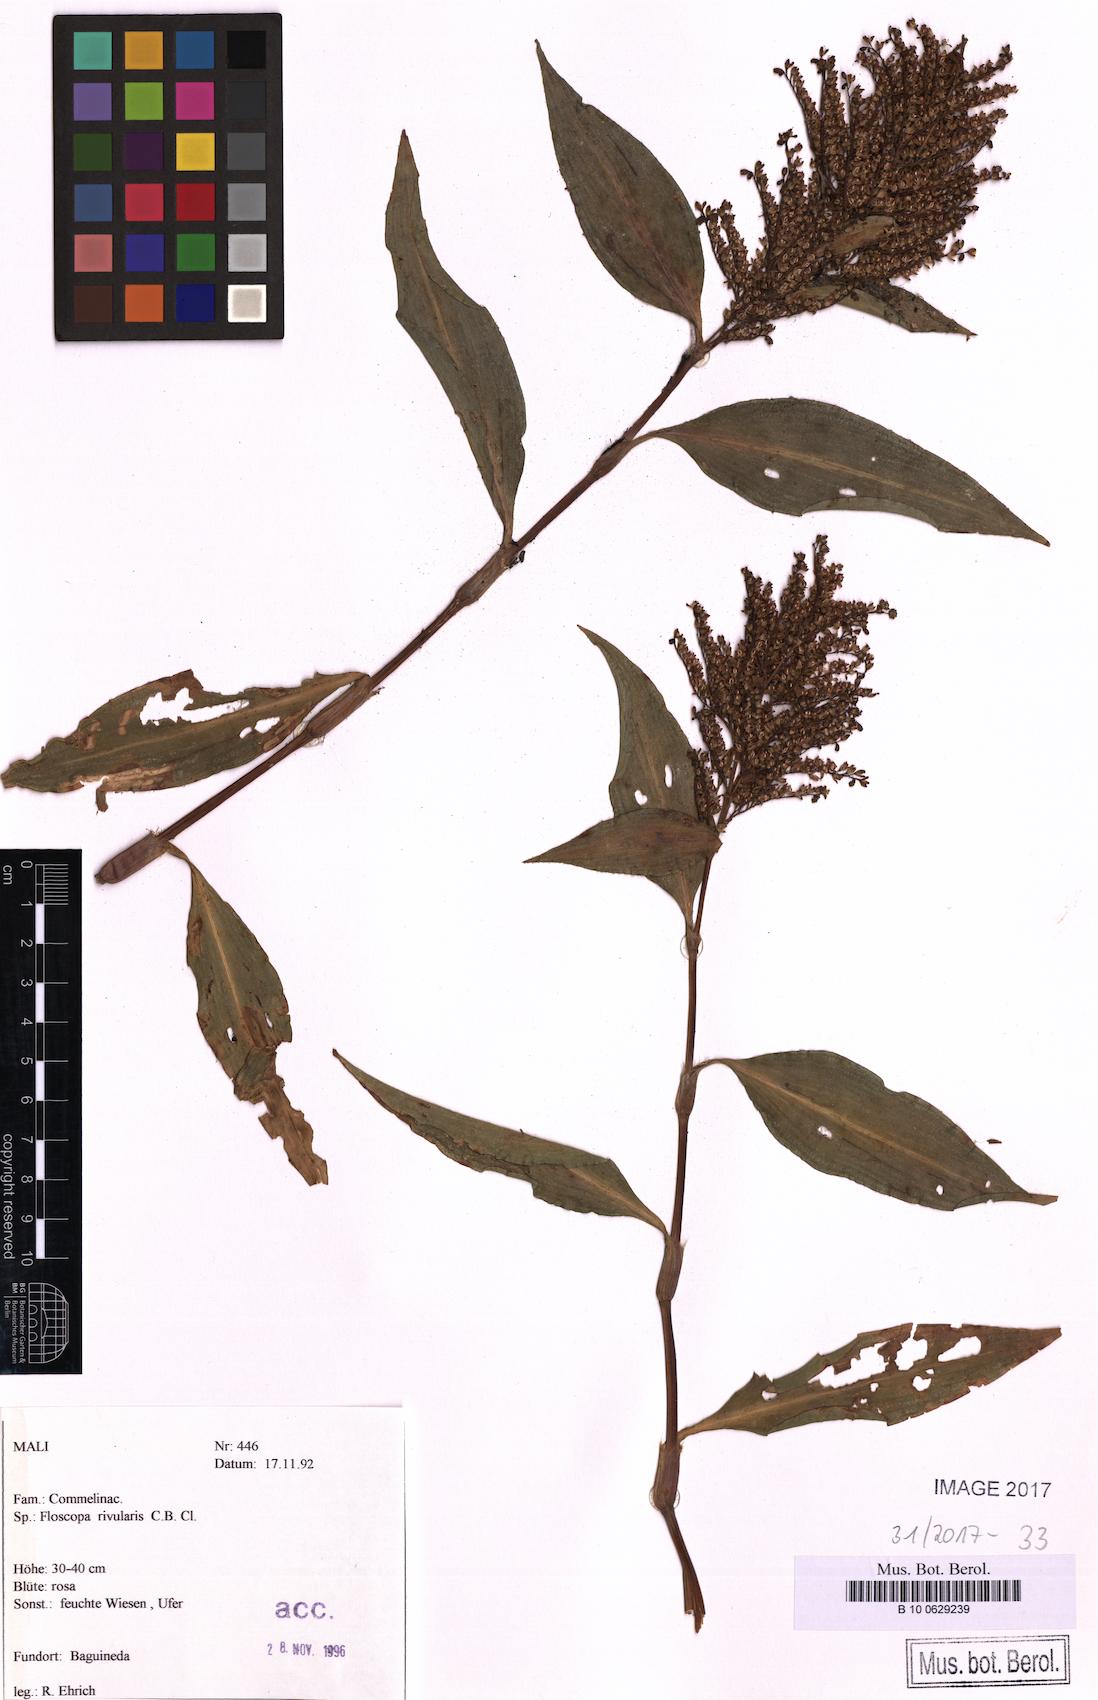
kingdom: Plantae
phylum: Tracheophyta
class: Liliopsida
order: Commelinales
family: Commelinaceae
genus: Floscopa
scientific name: Floscopa glomerata
